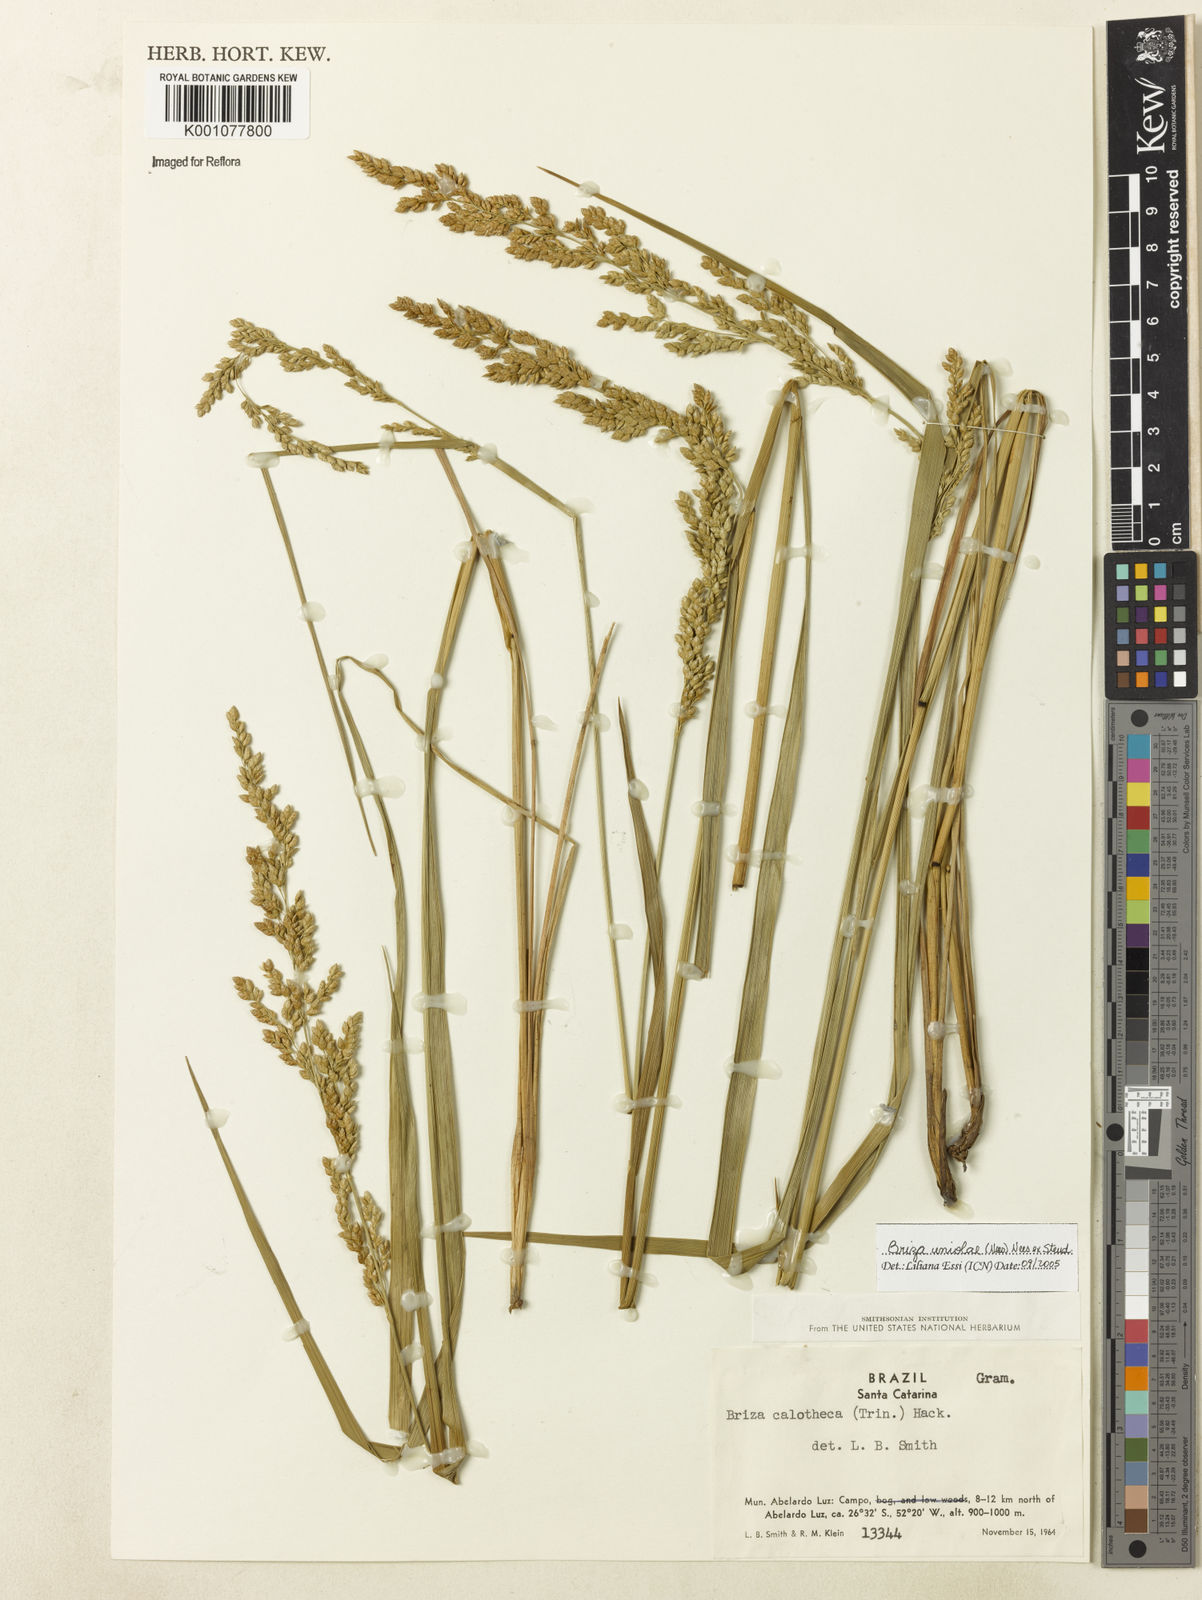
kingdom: Plantae
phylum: Tracheophyta
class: Liliopsida
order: Poales
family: Poaceae
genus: Poidium
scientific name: Poidium uniolae
